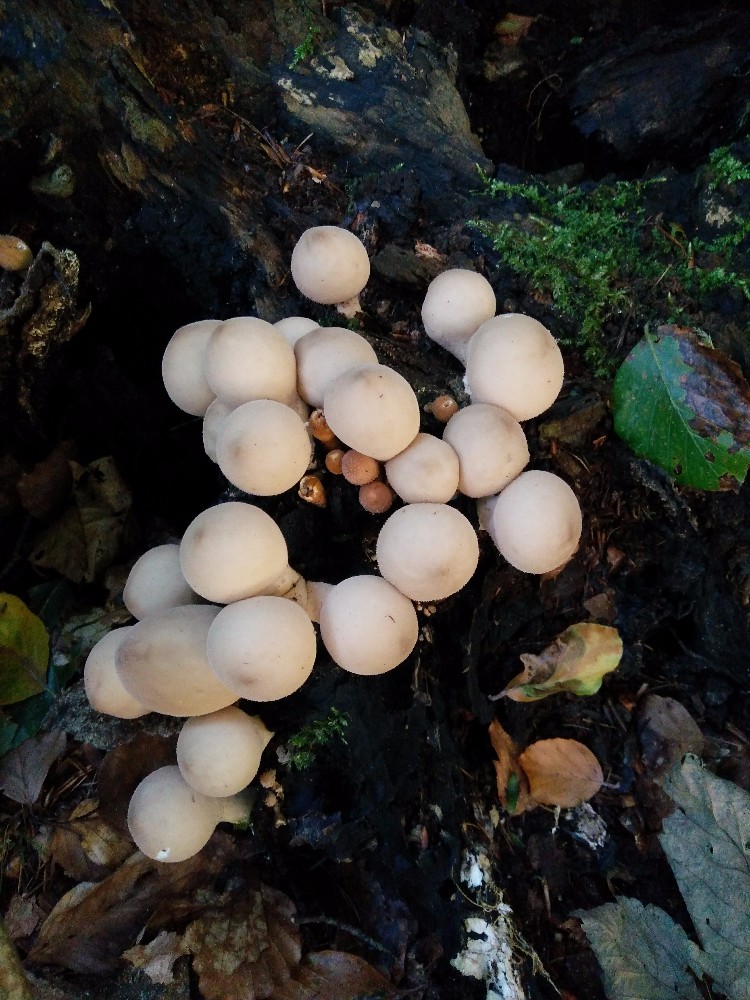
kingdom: Fungi
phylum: Basidiomycota
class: Agaricomycetes
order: Agaricales
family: Lycoperdaceae
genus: Apioperdon
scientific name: Apioperdon pyriforme
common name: pære-støvbold
